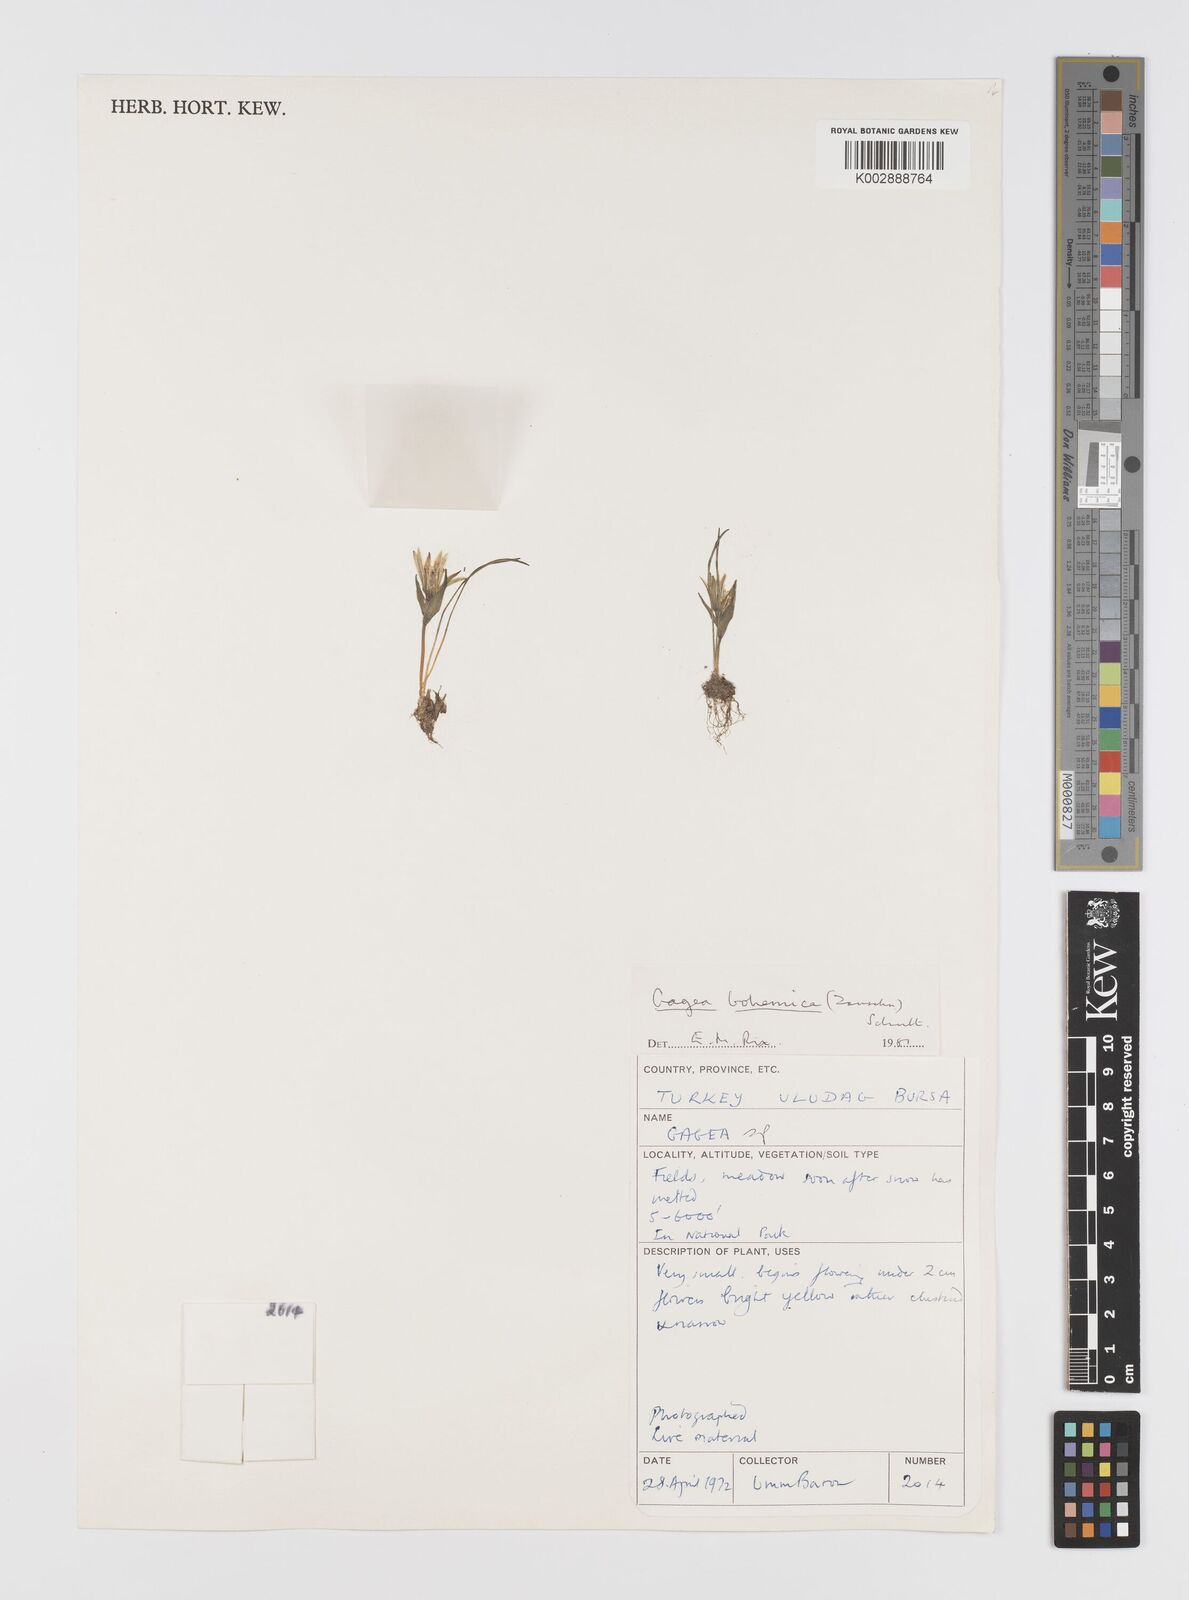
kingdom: Plantae
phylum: Tracheophyta
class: Liliopsida
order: Liliales
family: Liliaceae
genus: Gagea
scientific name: Gagea bohemica
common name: Early star-of-bethlehem
